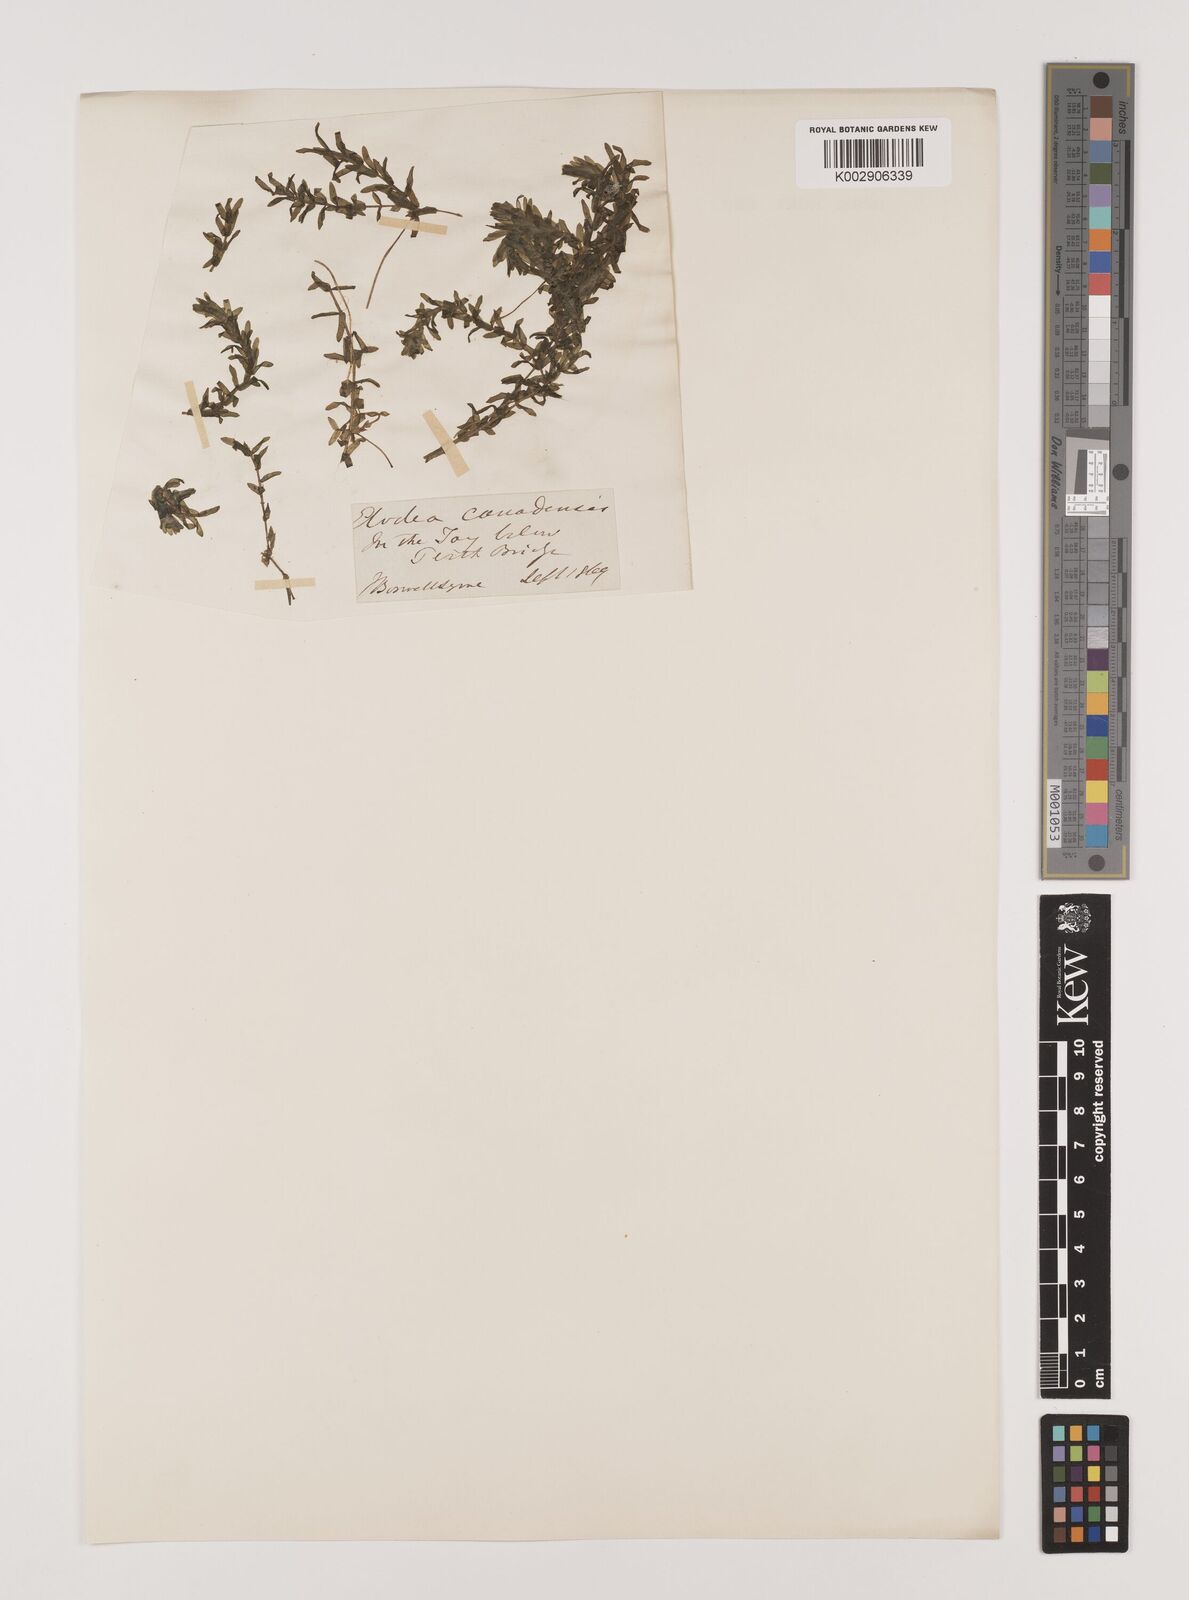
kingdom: Plantae
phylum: Tracheophyta
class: Liliopsida
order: Alismatales
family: Hydrocharitaceae
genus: Elodea
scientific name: Elodea canadensis
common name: Canadian waterweed
